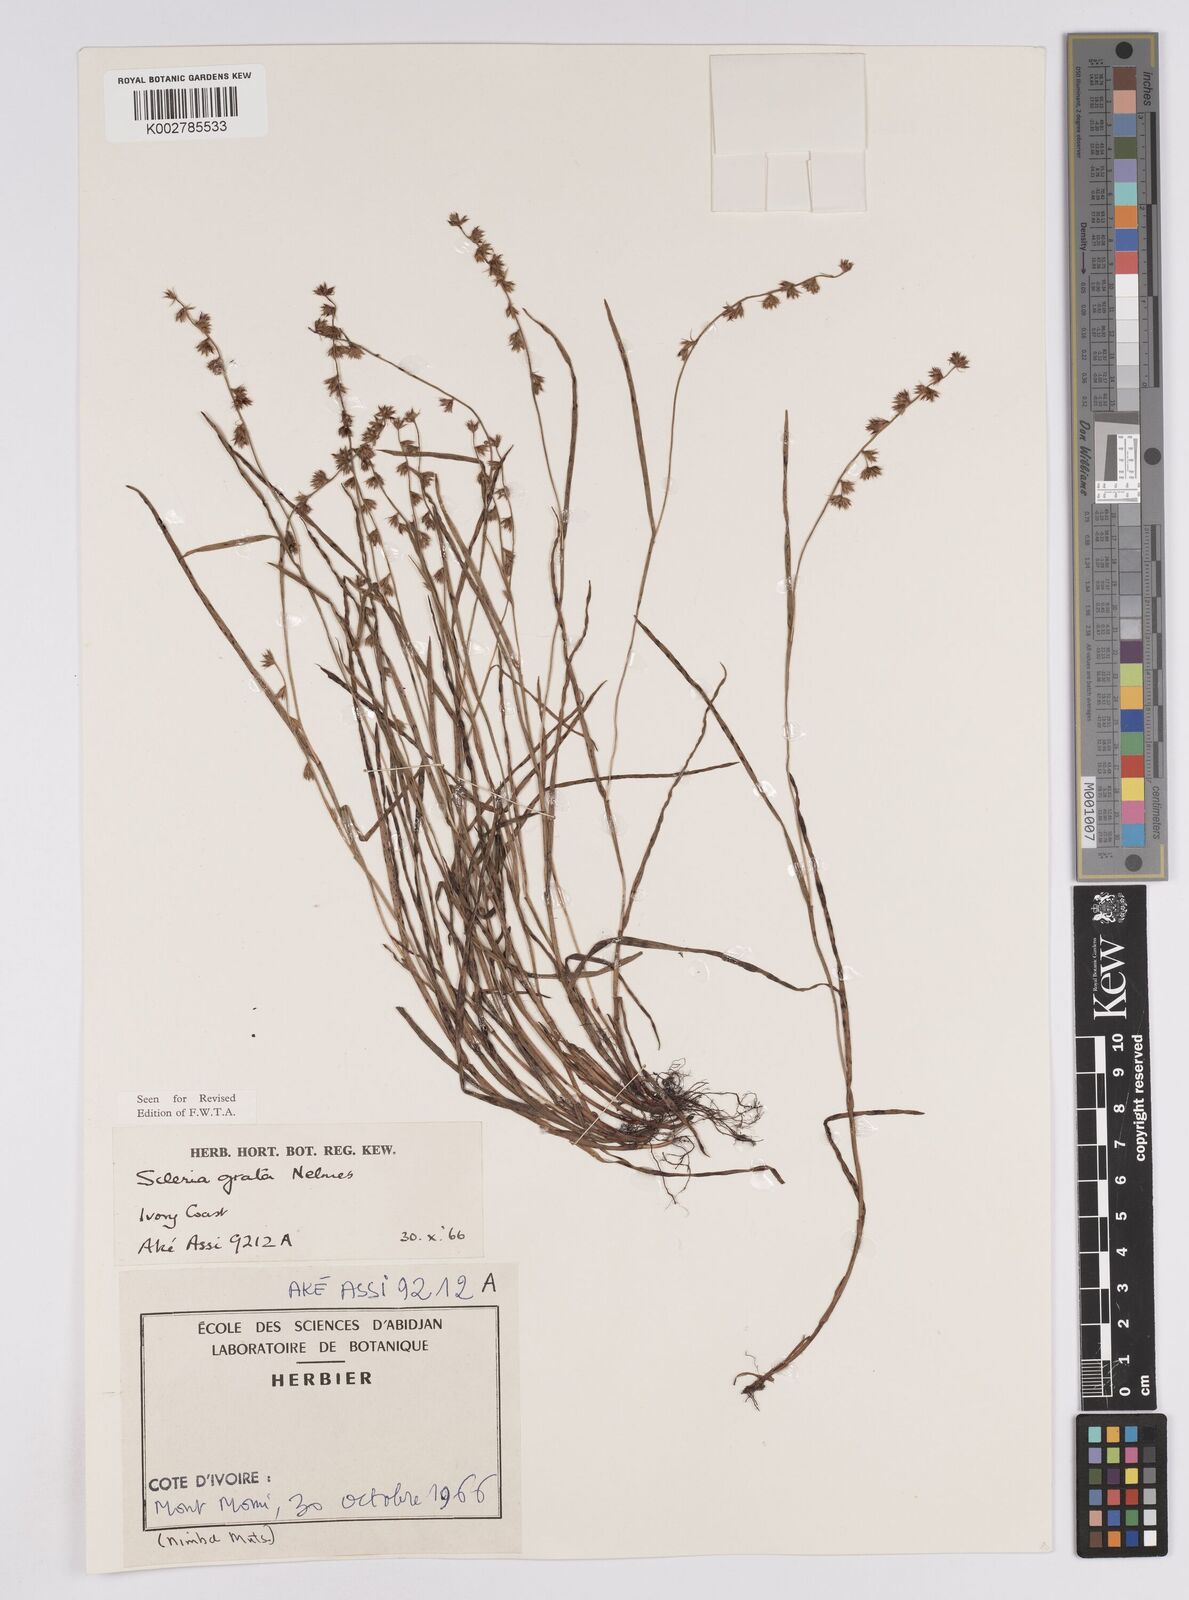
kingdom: Plantae
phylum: Tracheophyta
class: Liliopsida
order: Poales
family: Cyperaceae
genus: Scleria
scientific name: Scleria melanotricha
